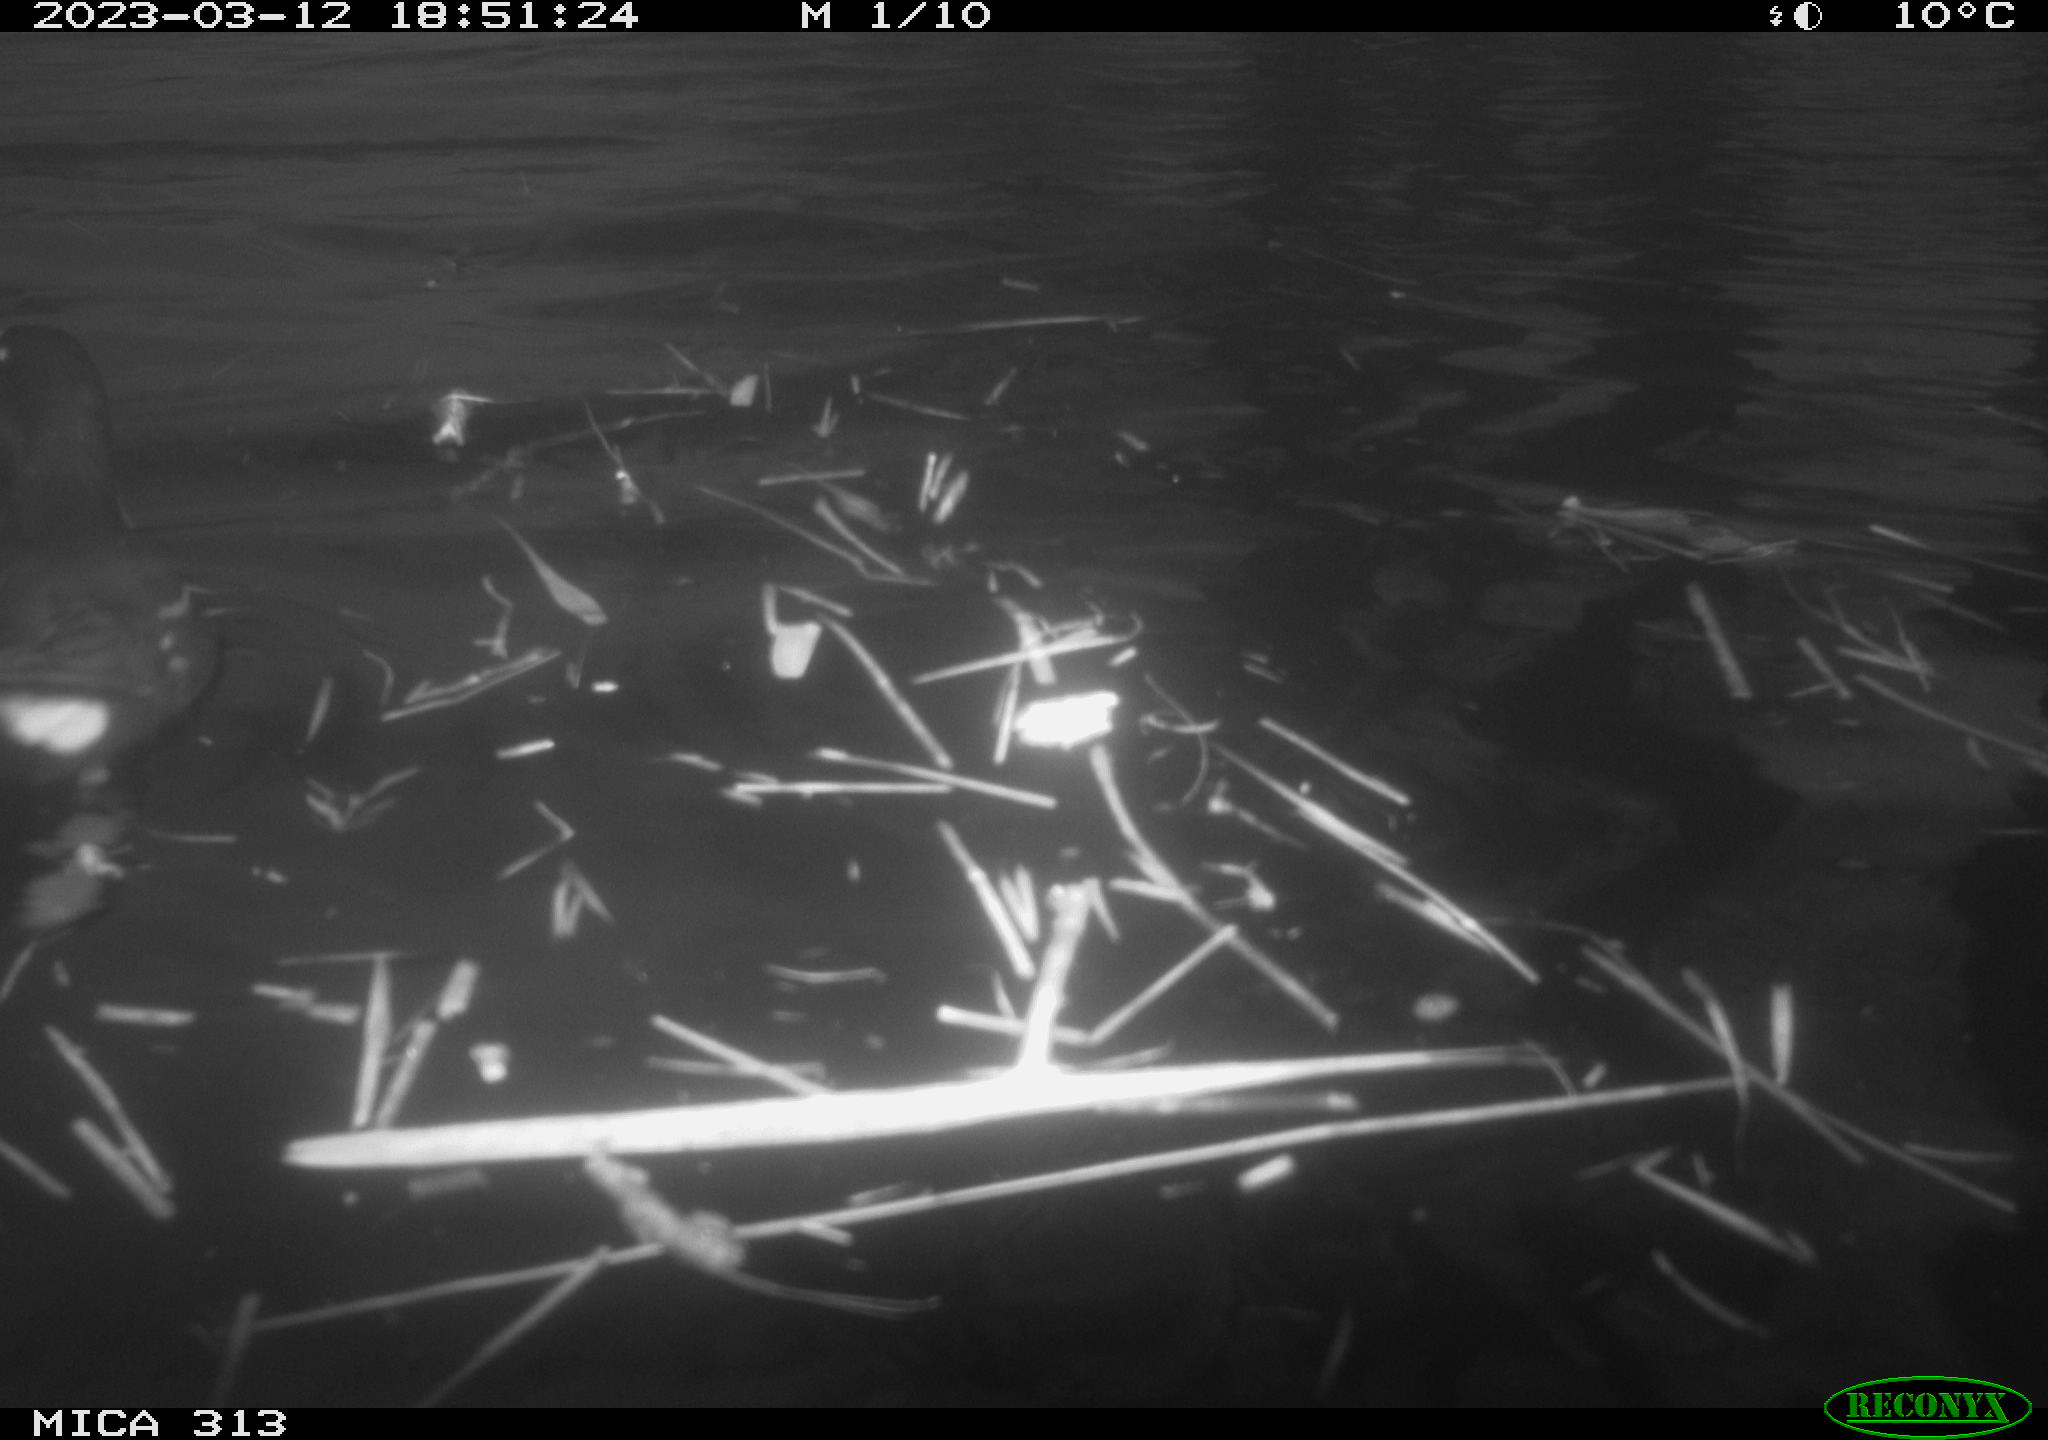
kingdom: Animalia
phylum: Chordata
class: Aves
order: Gruiformes
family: Rallidae
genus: Gallinula
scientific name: Gallinula chloropus
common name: Common moorhen
